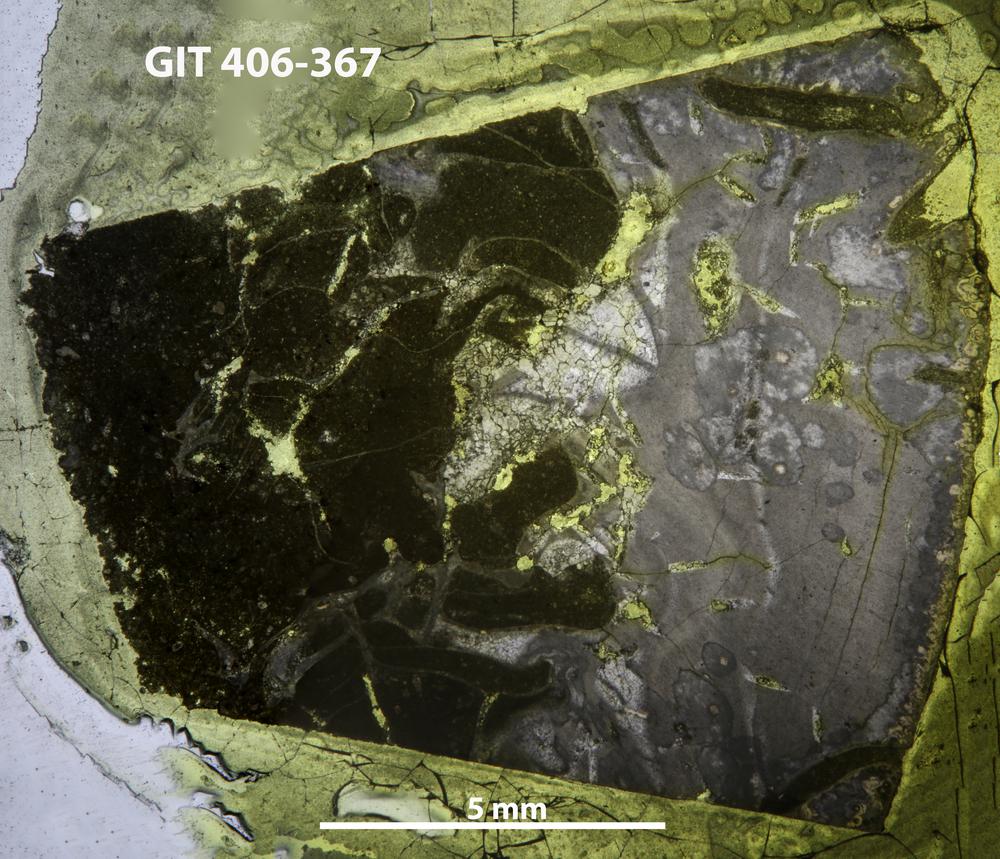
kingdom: Animalia
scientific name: Animalia
